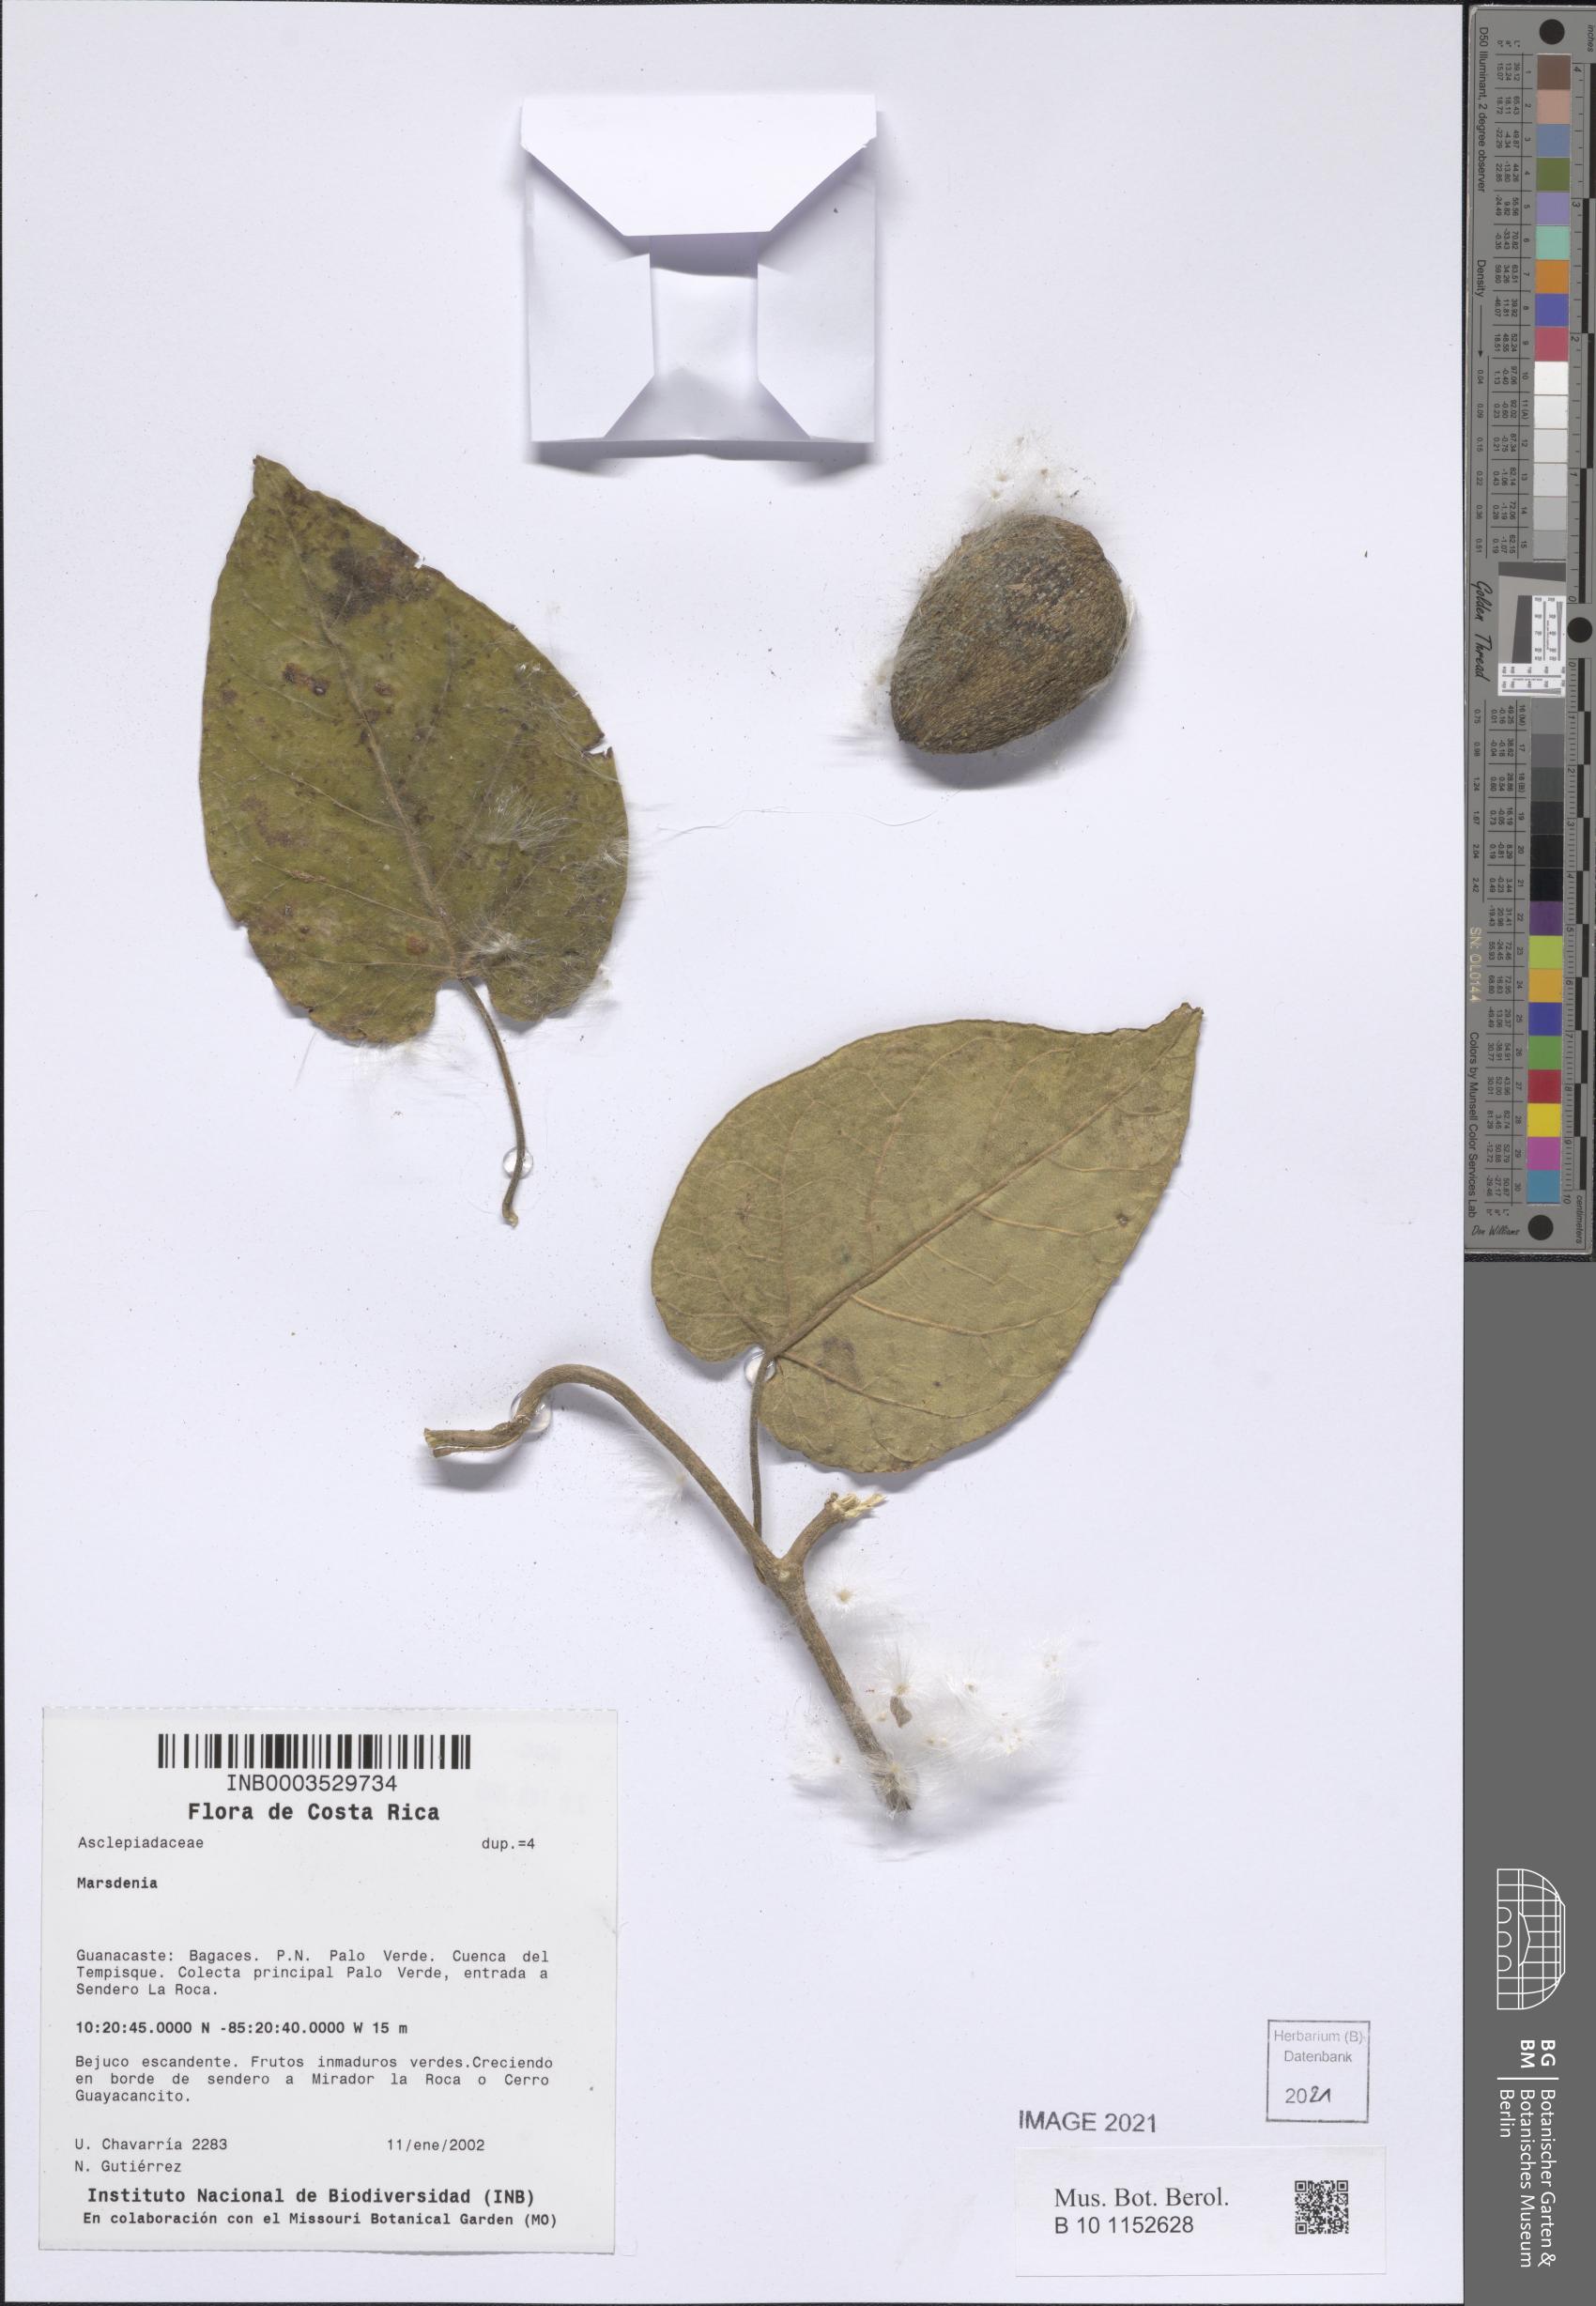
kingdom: Plantae
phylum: Tracheophyta
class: Magnoliopsida
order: Gentianales
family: Apocynaceae
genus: Ruehssia
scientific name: Ruehssia veronicae
